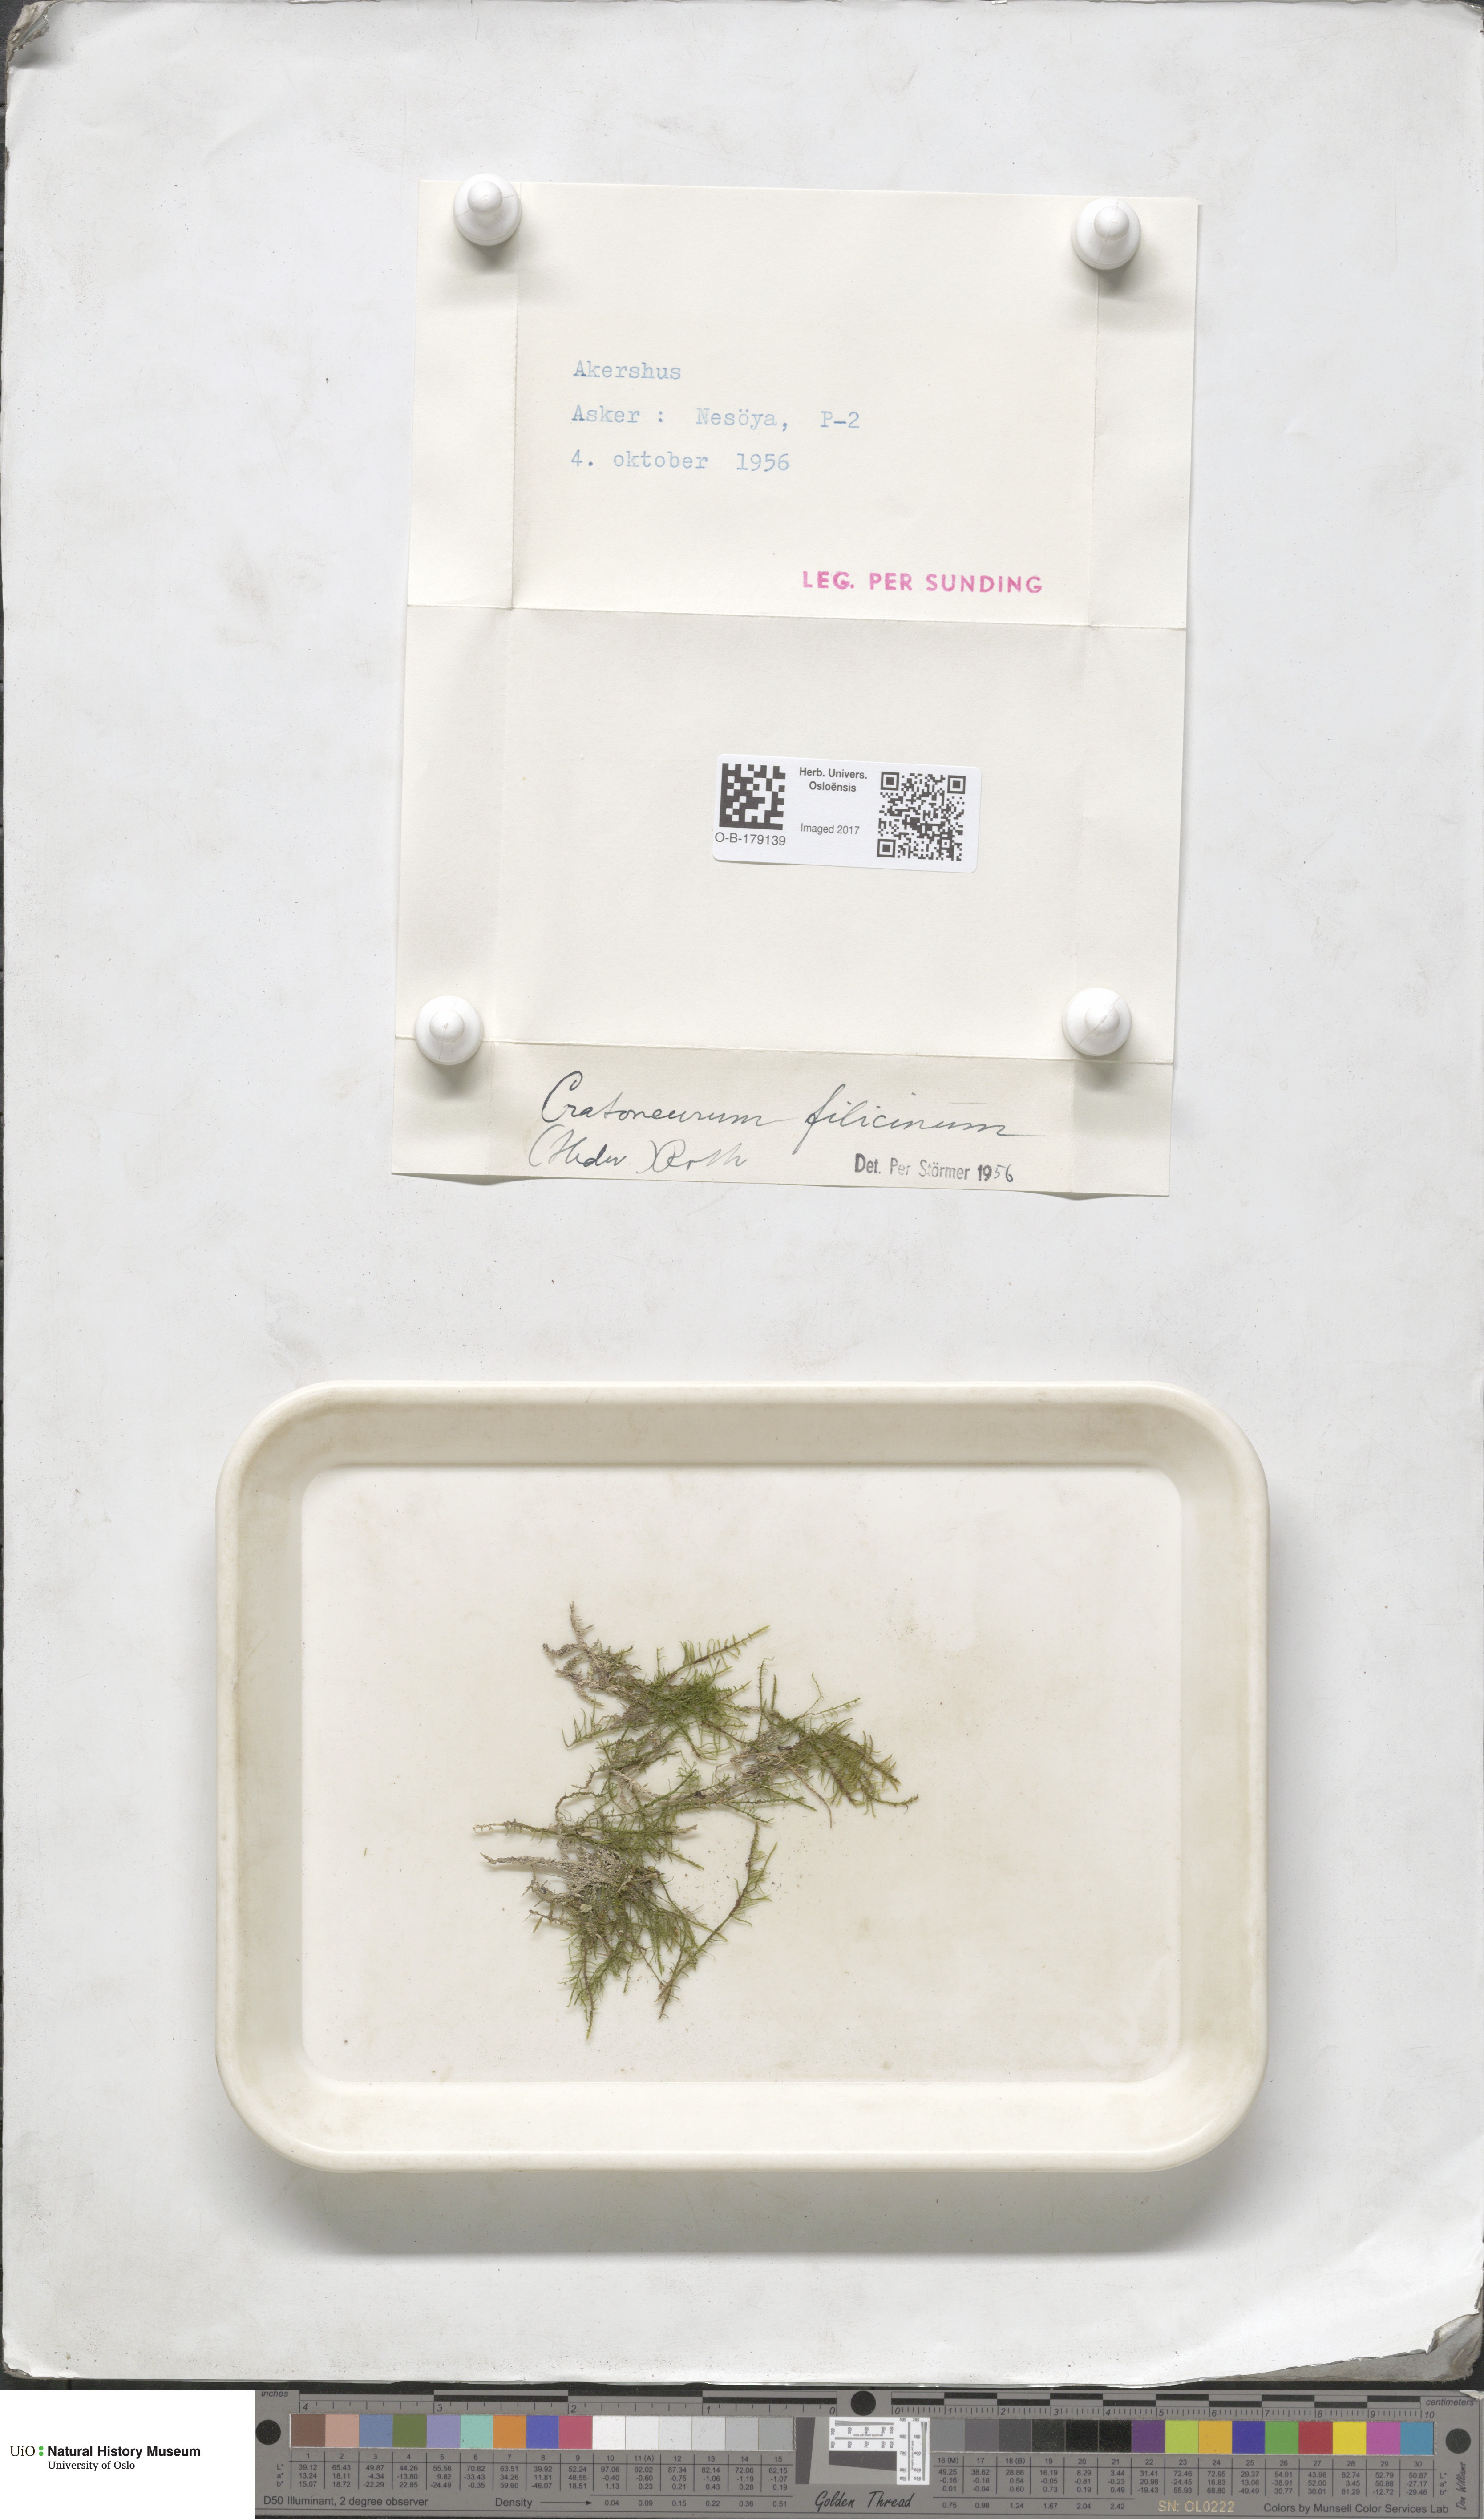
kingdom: Plantae
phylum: Bryophyta
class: Bryopsida
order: Hypnales
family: Amblystegiaceae
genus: Cratoneuron
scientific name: Cratoneuron filicinum
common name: Fern-leaved hook moss
